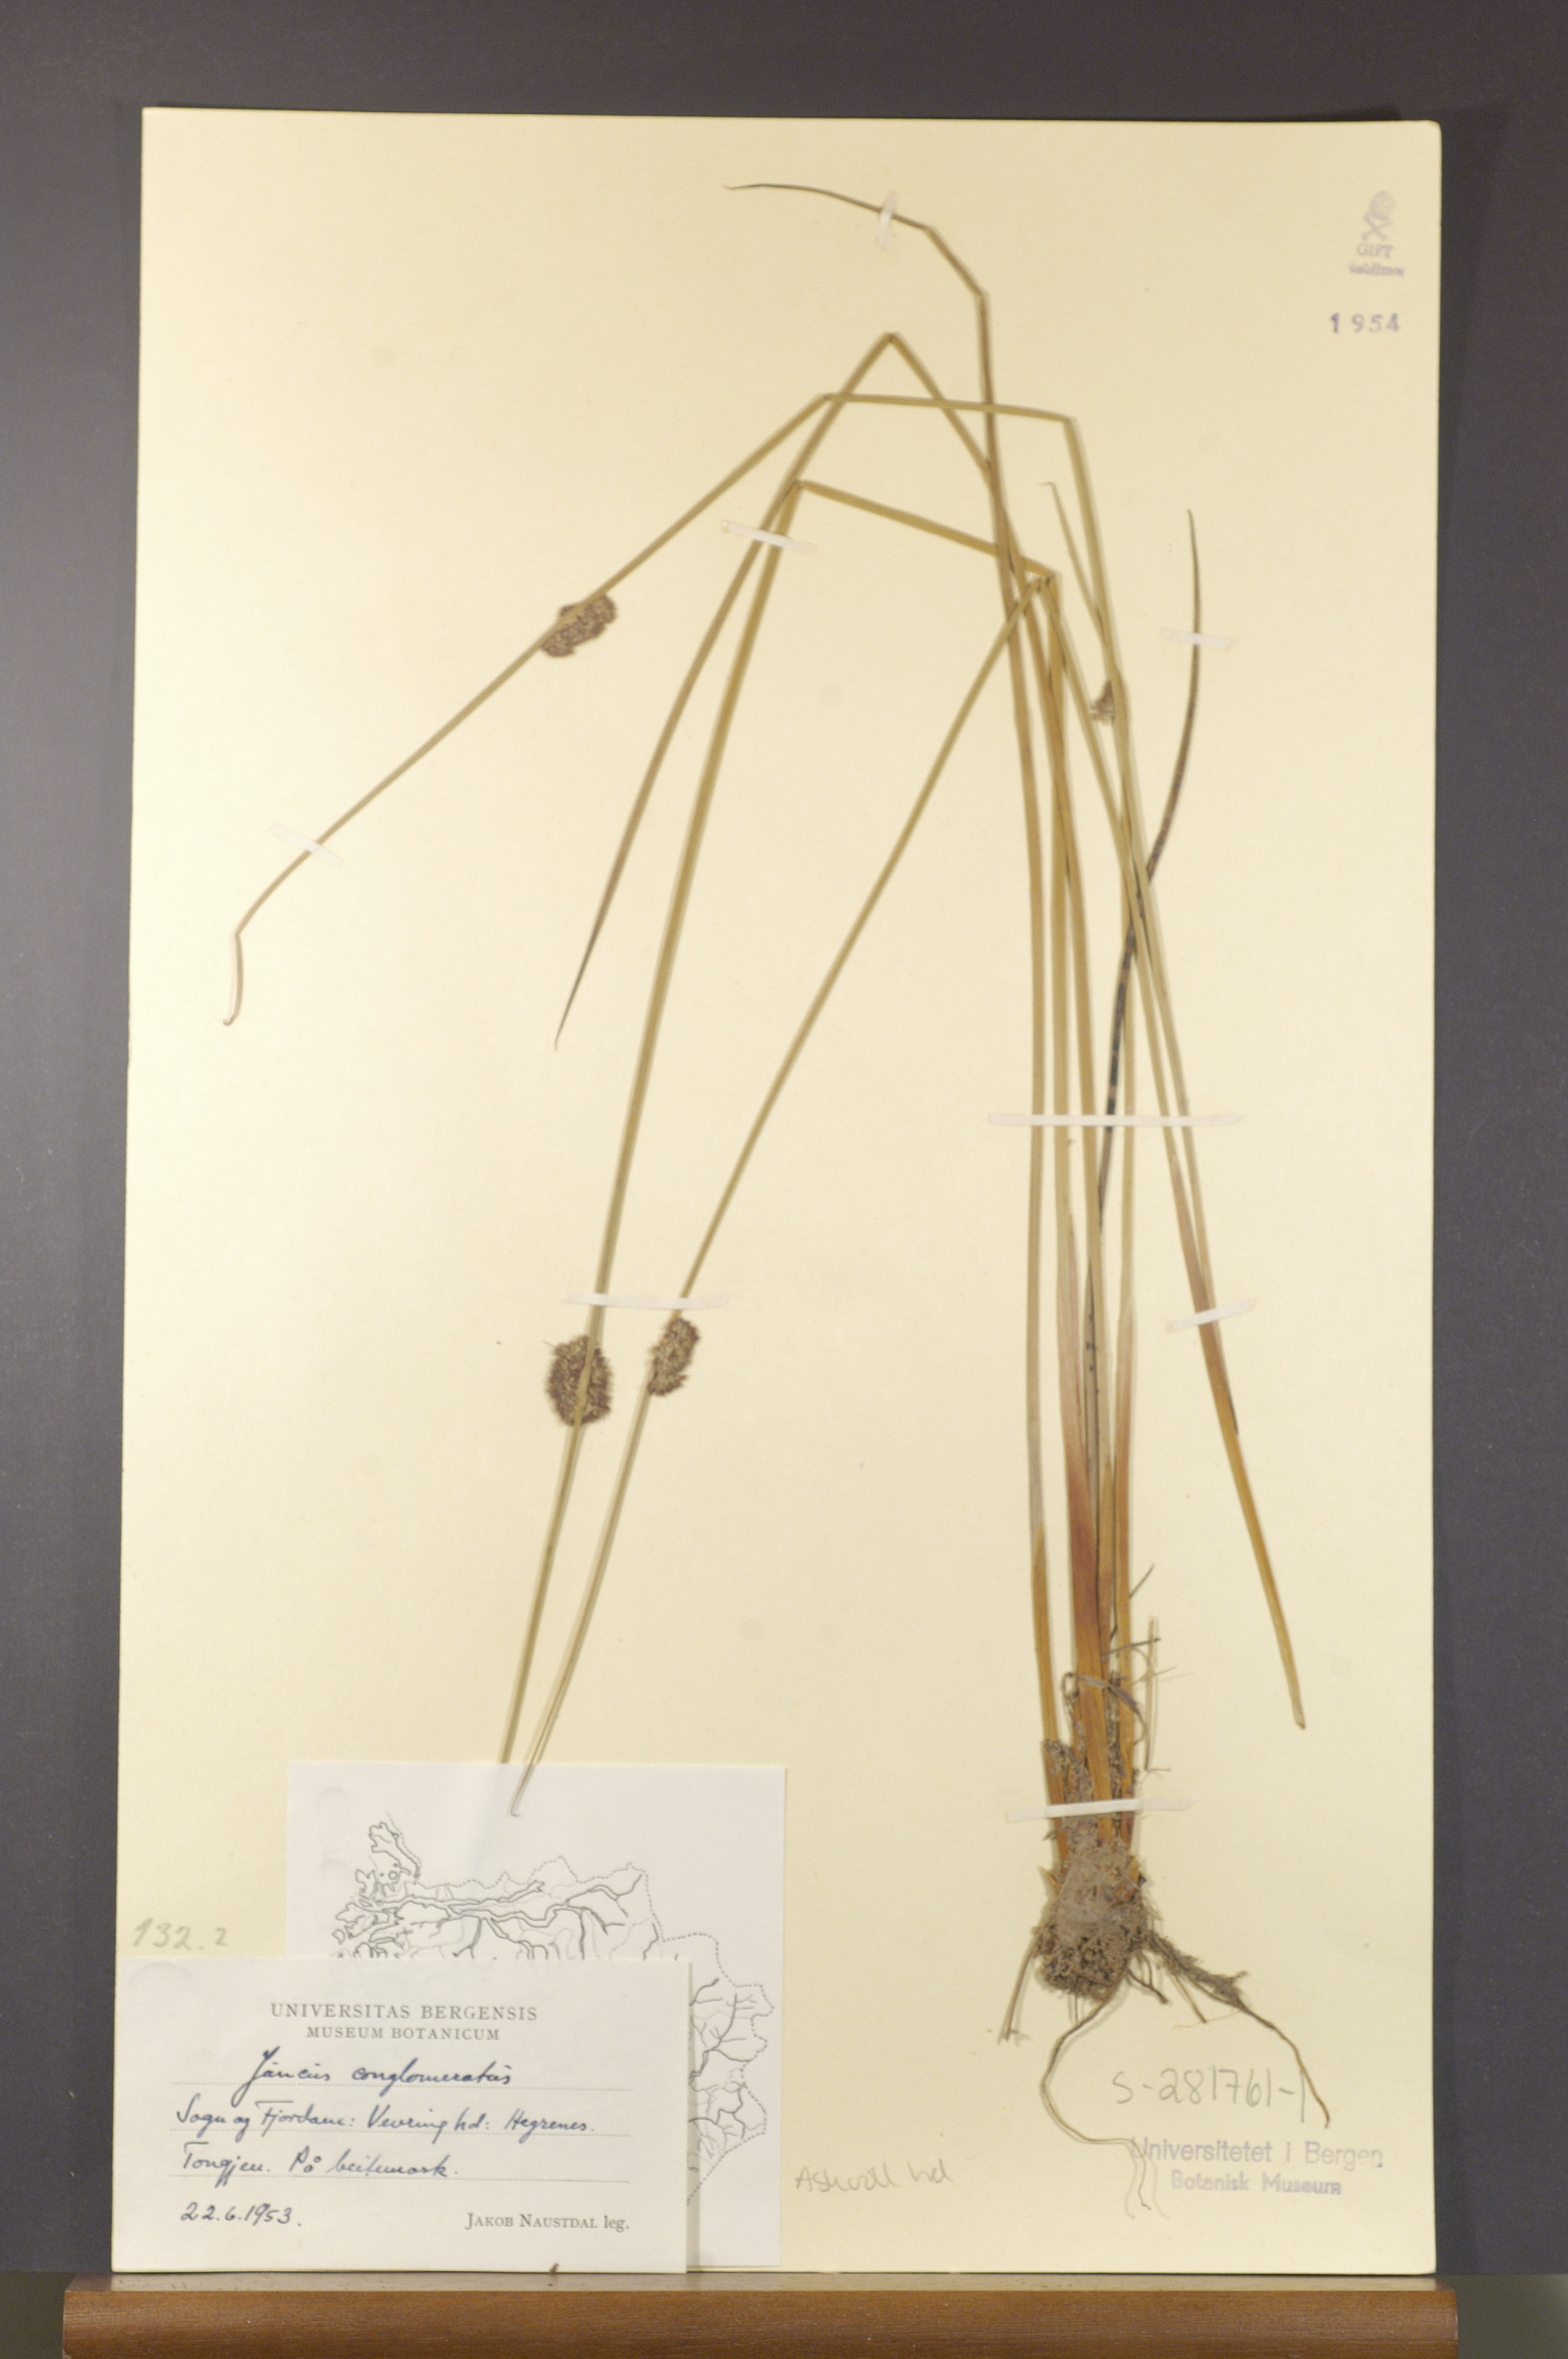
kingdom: Plantae
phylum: Tracheophyta
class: Liliopsida
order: Poales
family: Juncaceae
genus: Juncus
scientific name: Juncus conglomeratus
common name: Compact rush
